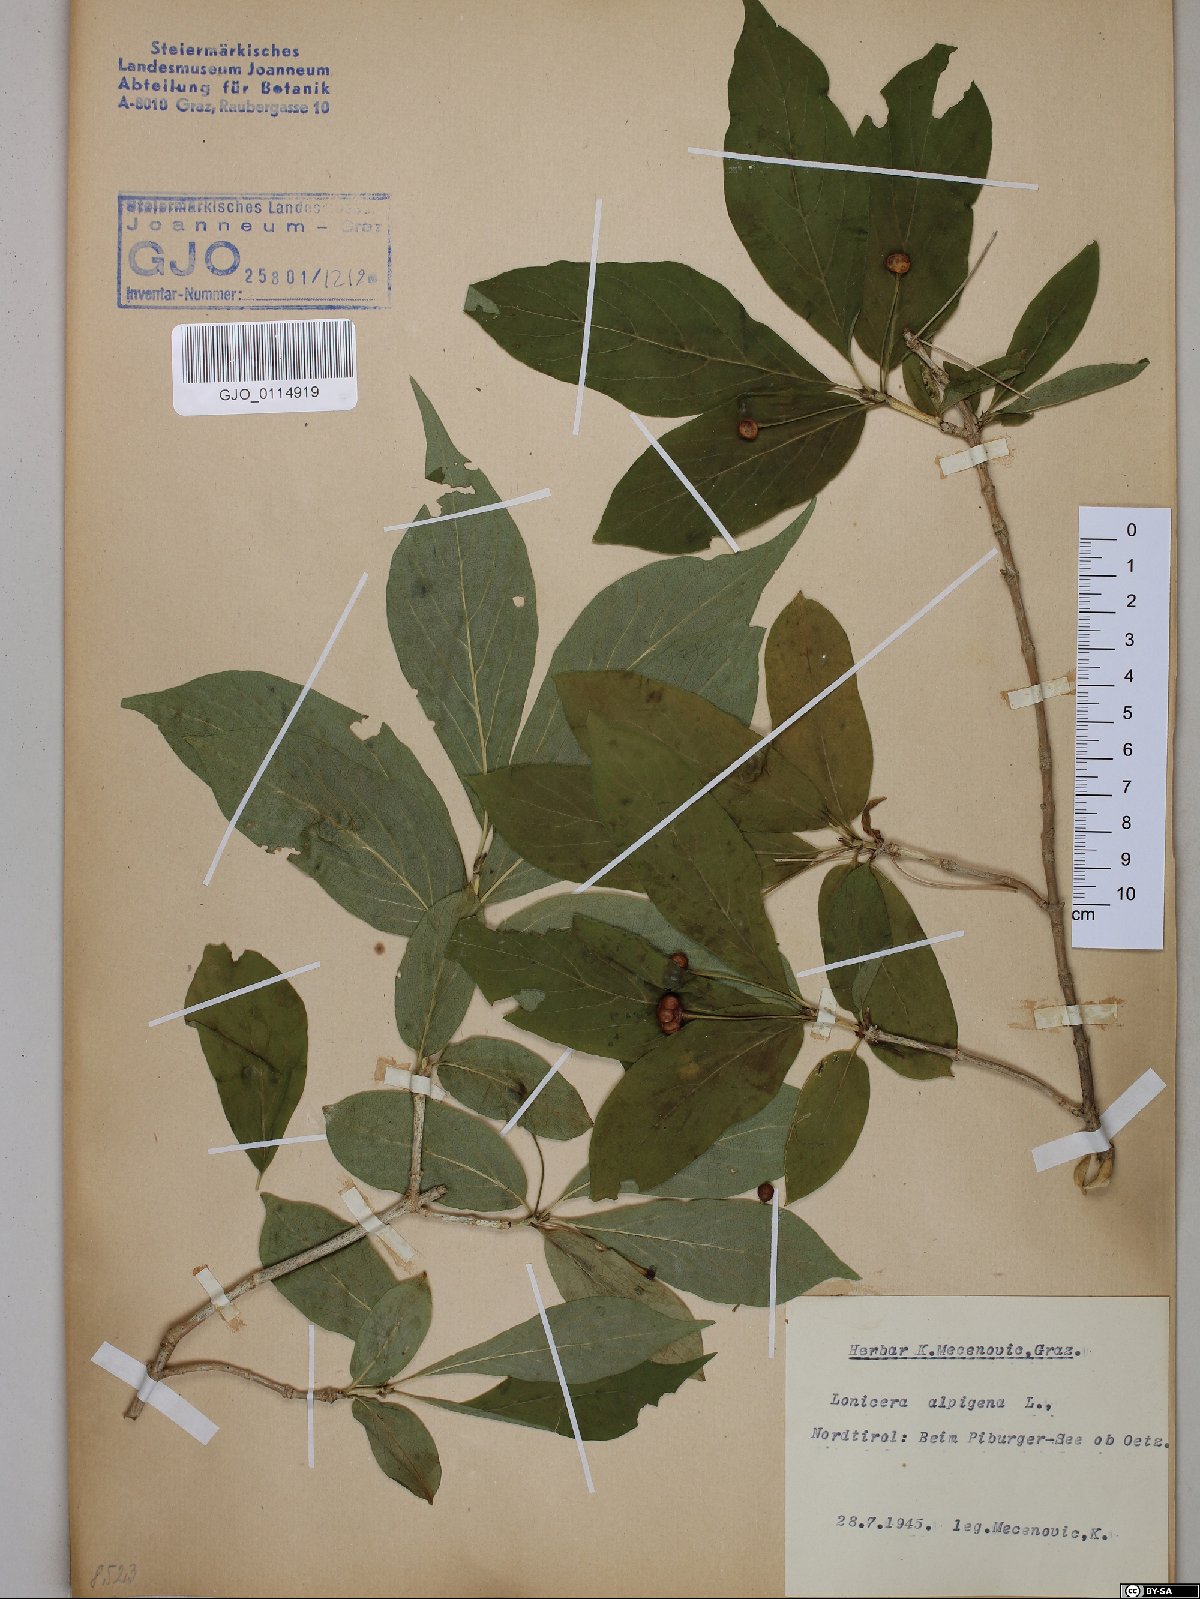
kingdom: Plantae
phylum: Tracheophyta
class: Magnoliopsida
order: Dipsacales
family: Caprifoliaceae
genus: Lonicera
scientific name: Lonicera alpigena
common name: Alpine honeysuckle
